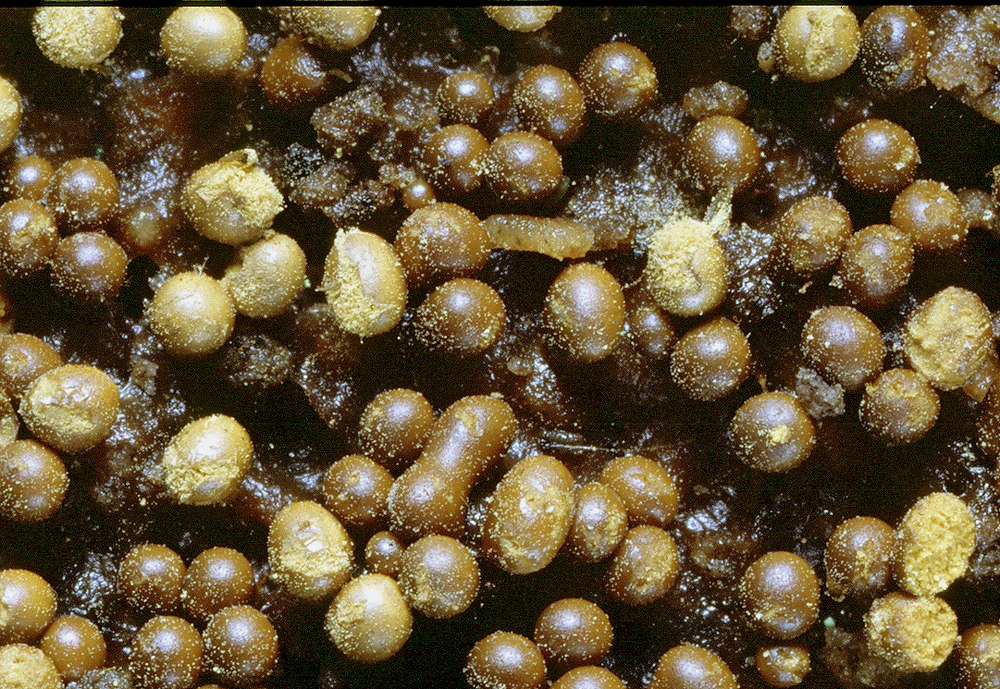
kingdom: Protozoa
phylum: Mycetozoa
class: Myxomycetes
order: Trichiales
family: Trichiaceae
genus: Trichia
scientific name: Trichia varia
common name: foranderlig hårbold
